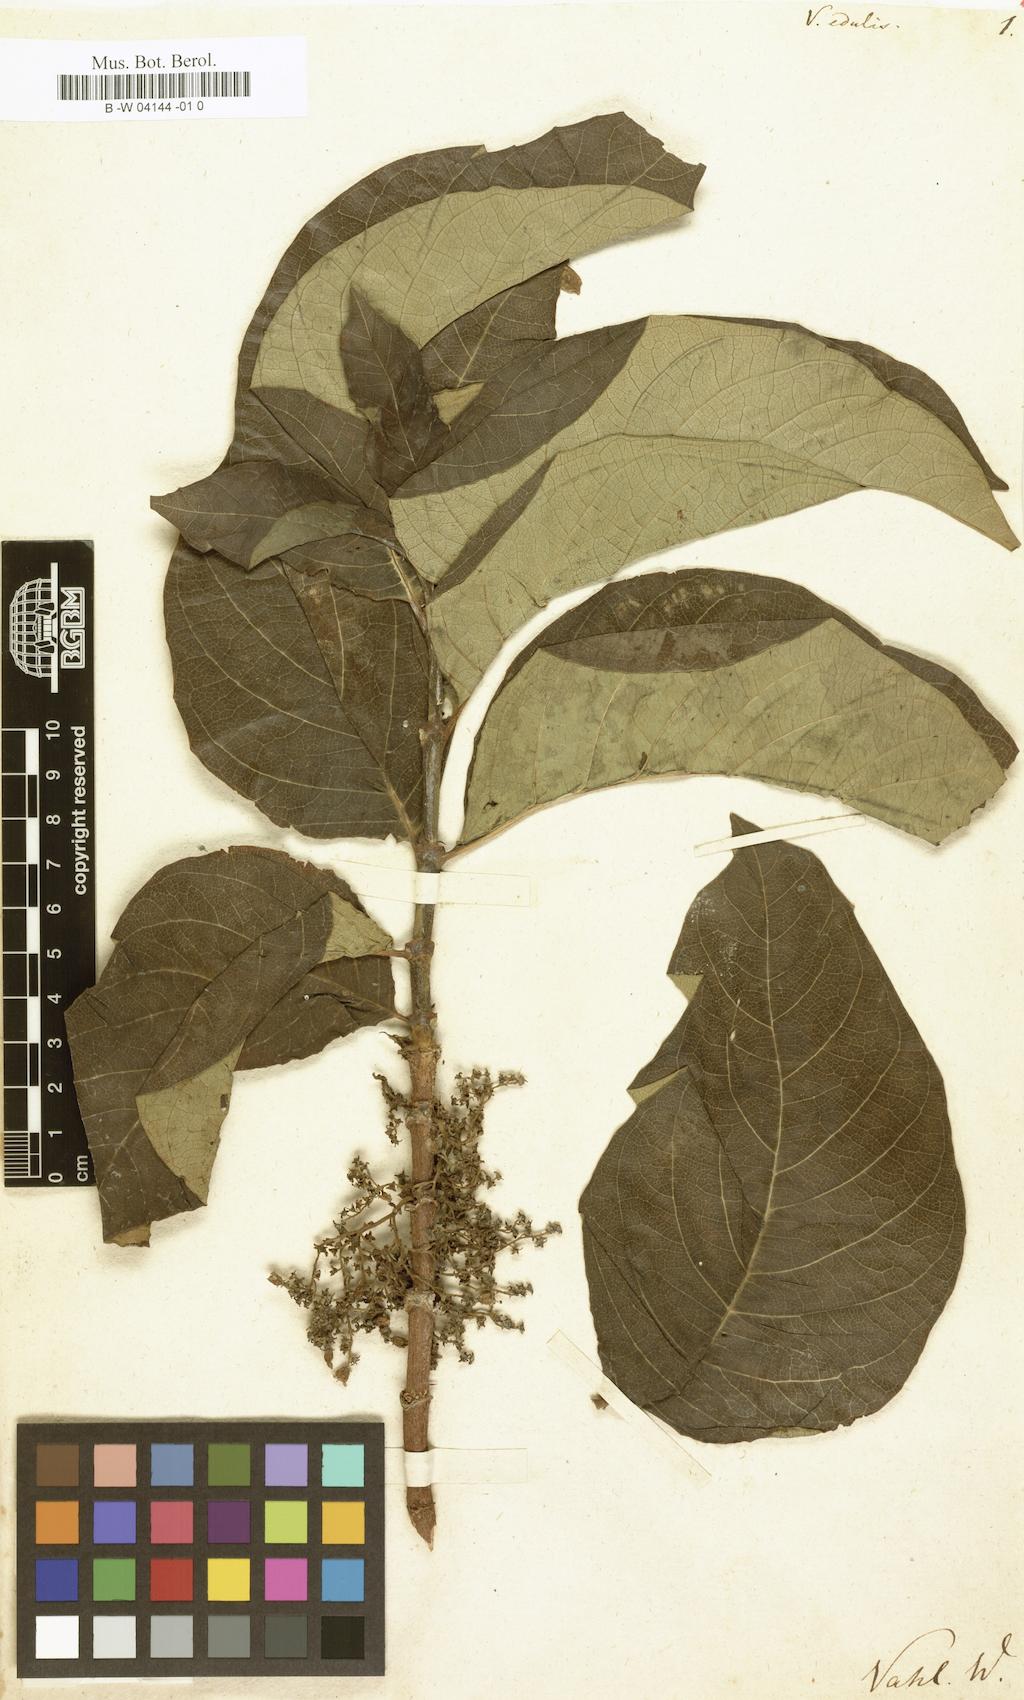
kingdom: Plantae
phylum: Tracheophyta
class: Magnoliopsida
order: Gentianales
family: Rubiaceae
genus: Vangueria
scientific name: Vangueria edulis
